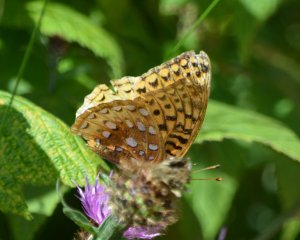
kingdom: Animalia
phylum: Arthropoda
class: Insecta
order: Lepidoptera
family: Nymphalidae
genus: Speyeria
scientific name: Speyeria cybele
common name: Great Spangled Fritillary
